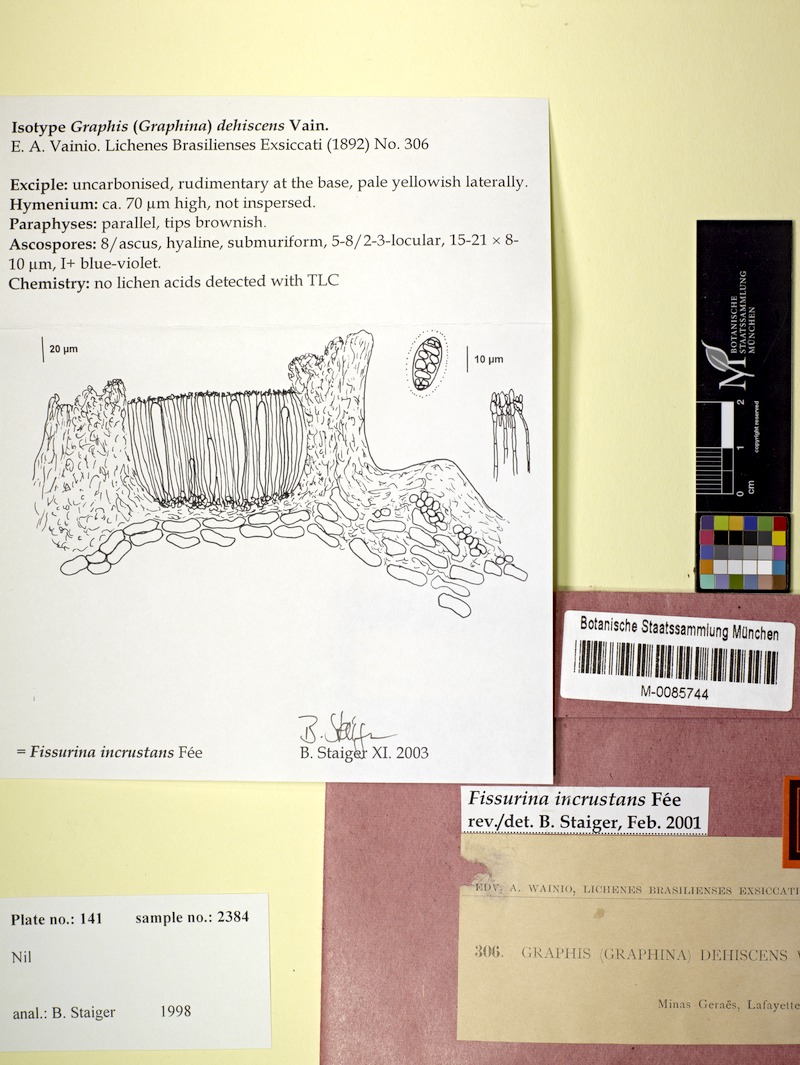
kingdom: Fungi
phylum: Ascomycota
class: Lecanoromycetes
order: Ostropales
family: Graphidaceae
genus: Fissurina
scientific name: Fissurina incrustans
